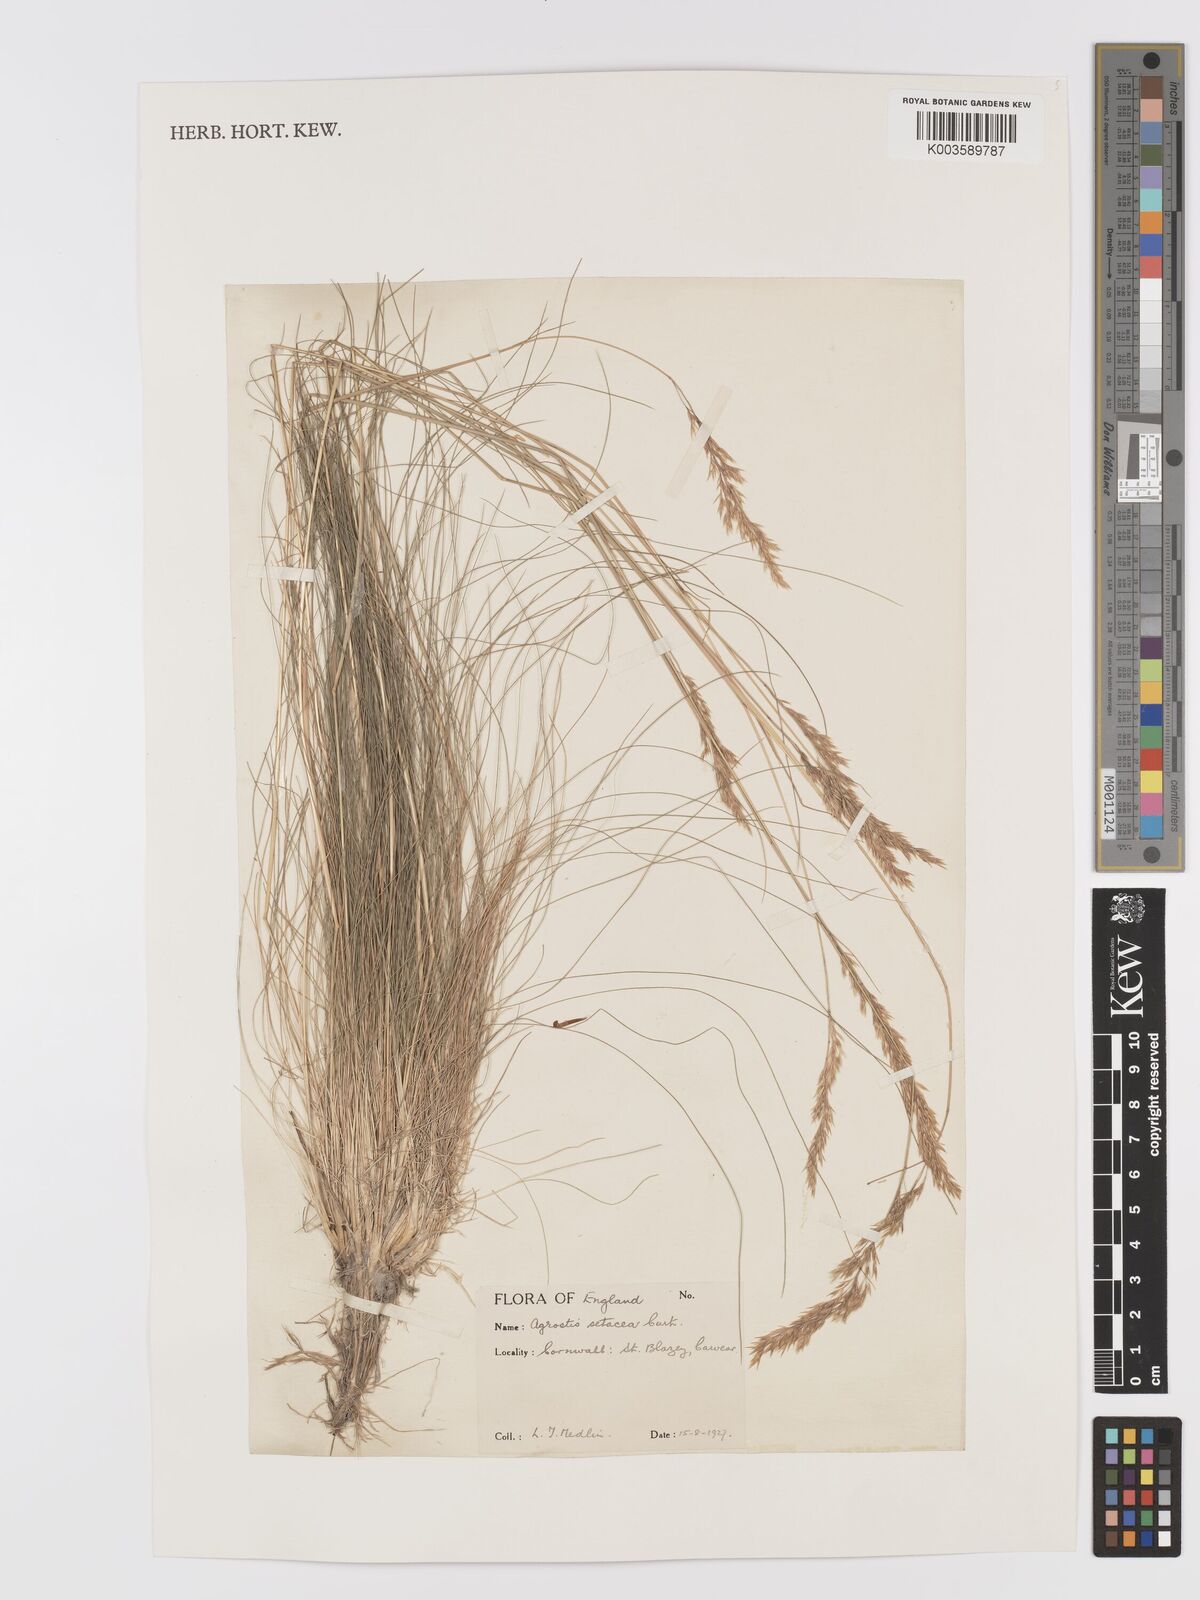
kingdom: Plantae
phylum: Tracheophyta
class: Liliopsida
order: Poales
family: Poaceae
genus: Alpagrostis
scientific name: Alpagrostis setacea
